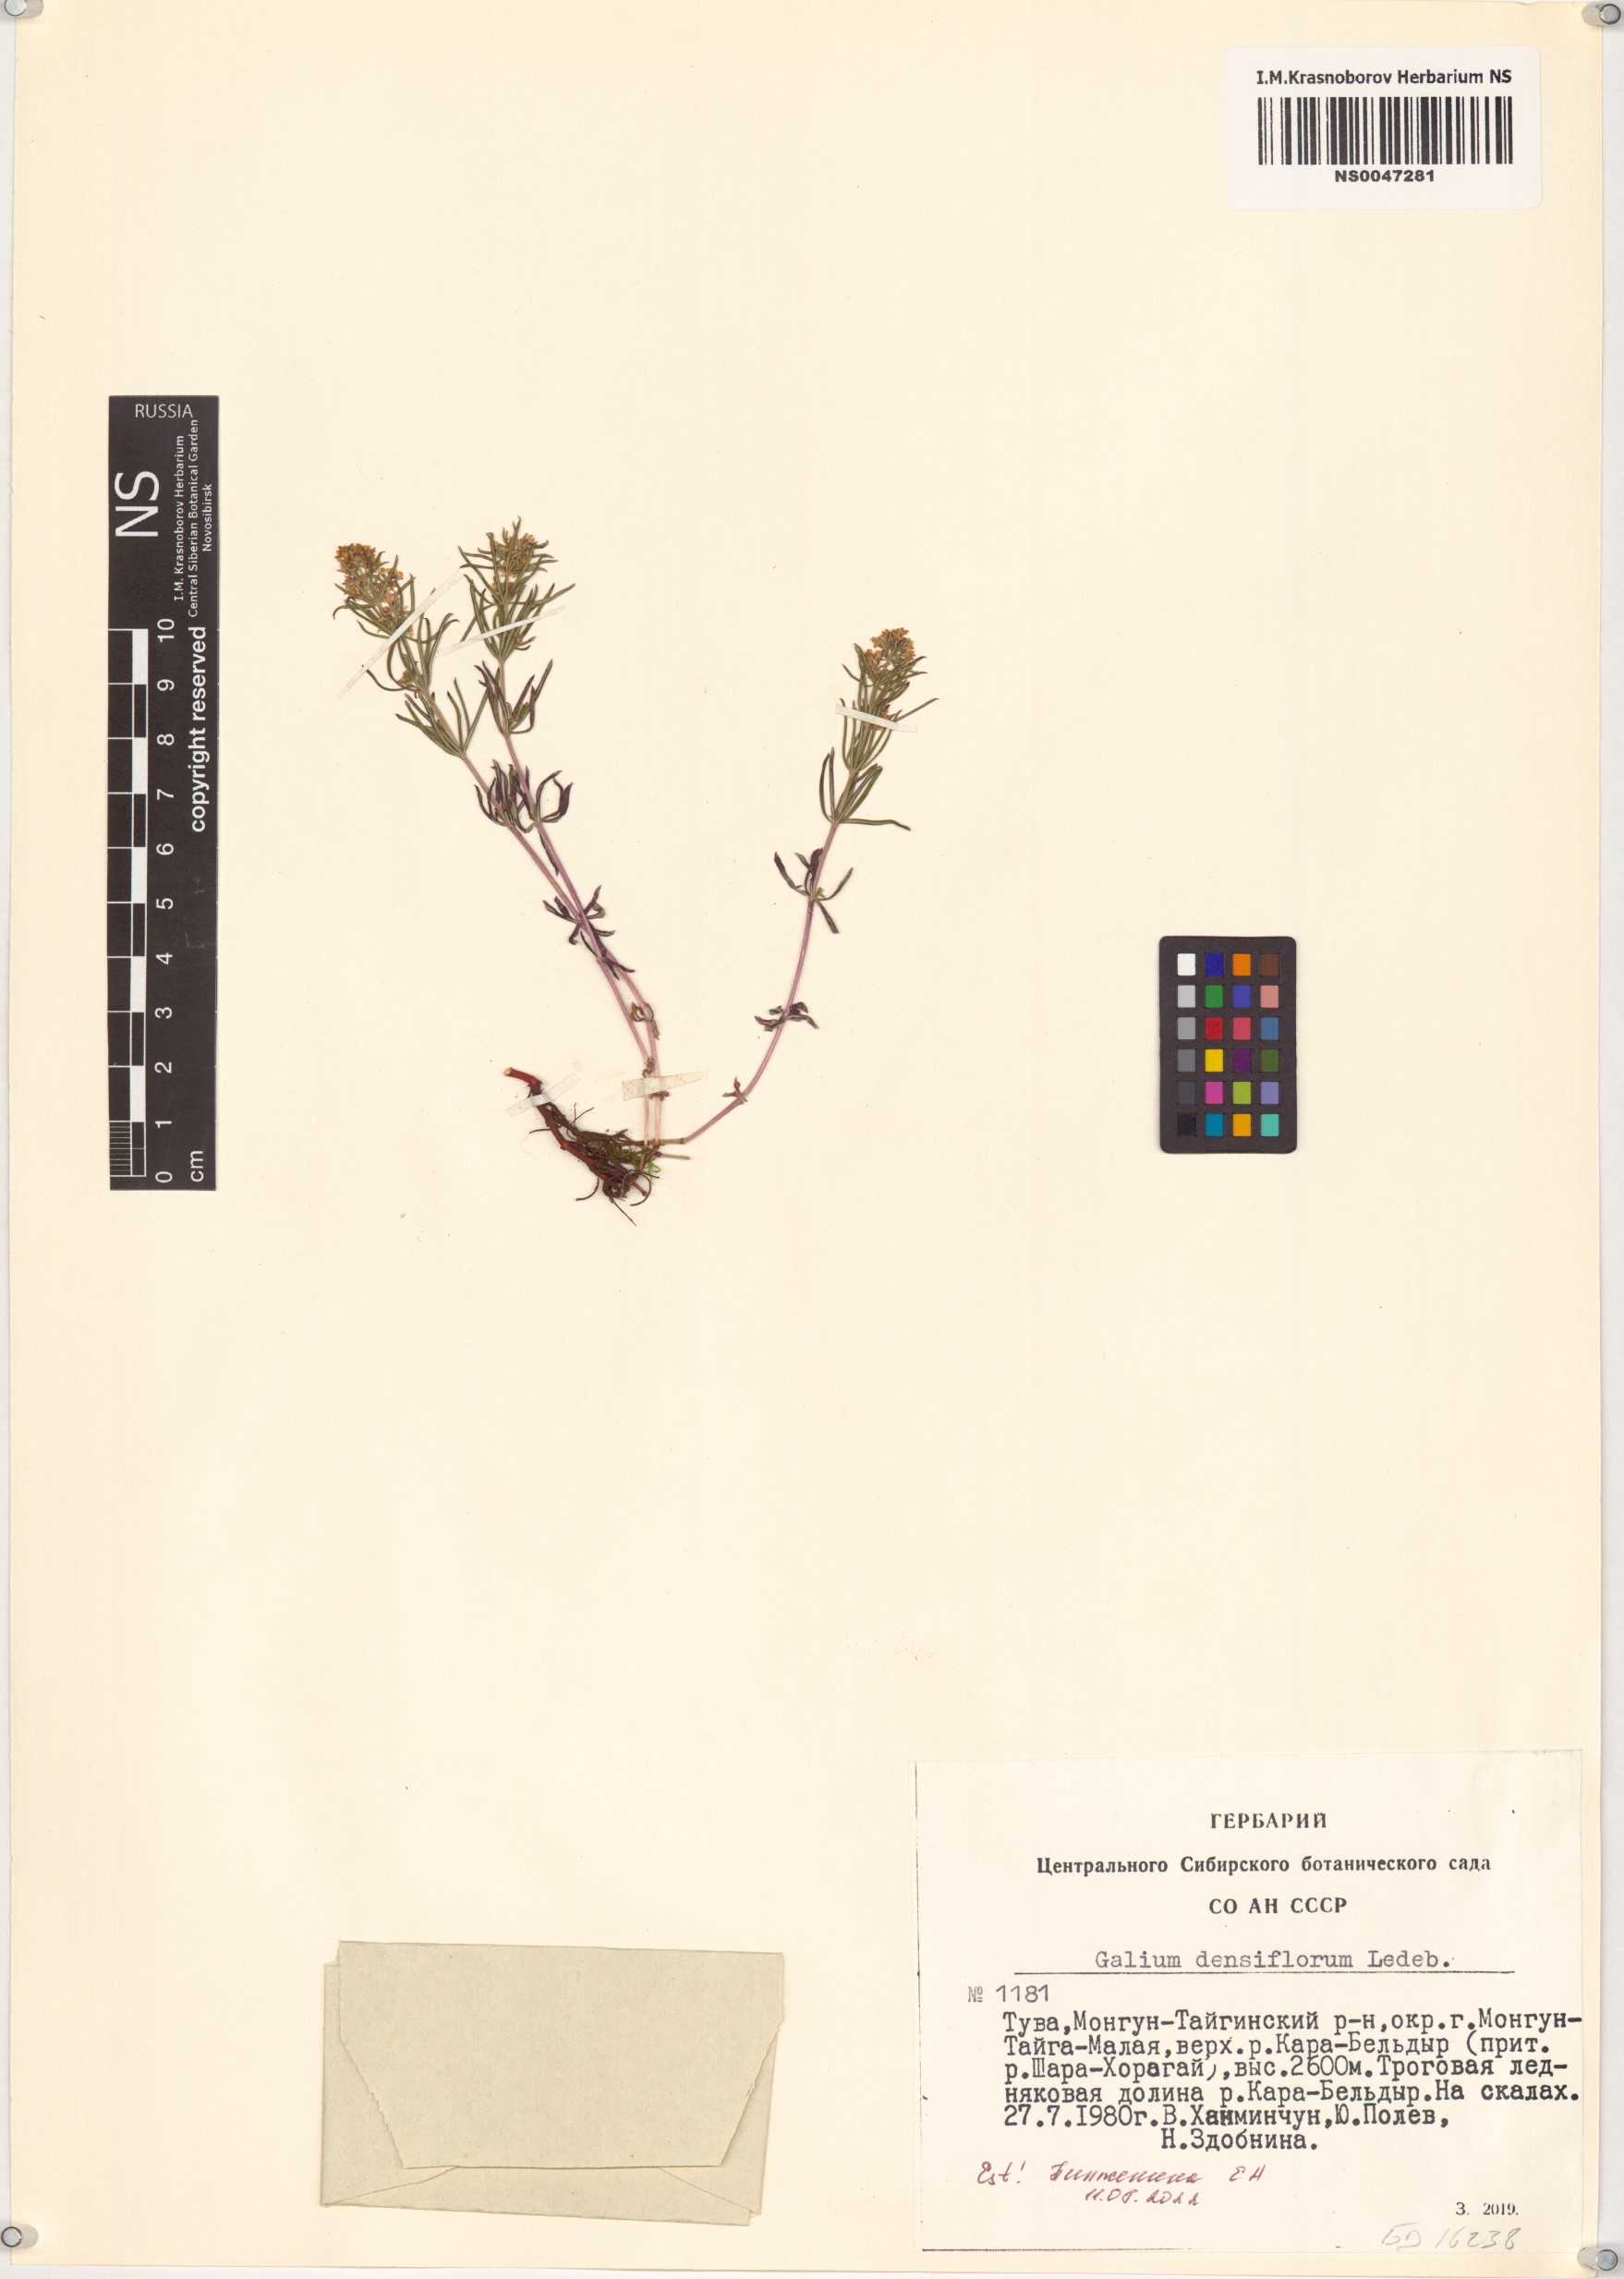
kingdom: Plantae
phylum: Tracheophyta
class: Magnoliopsida
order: Gentianales
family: Rubiaceae
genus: Galium
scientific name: Galium densiflorum
